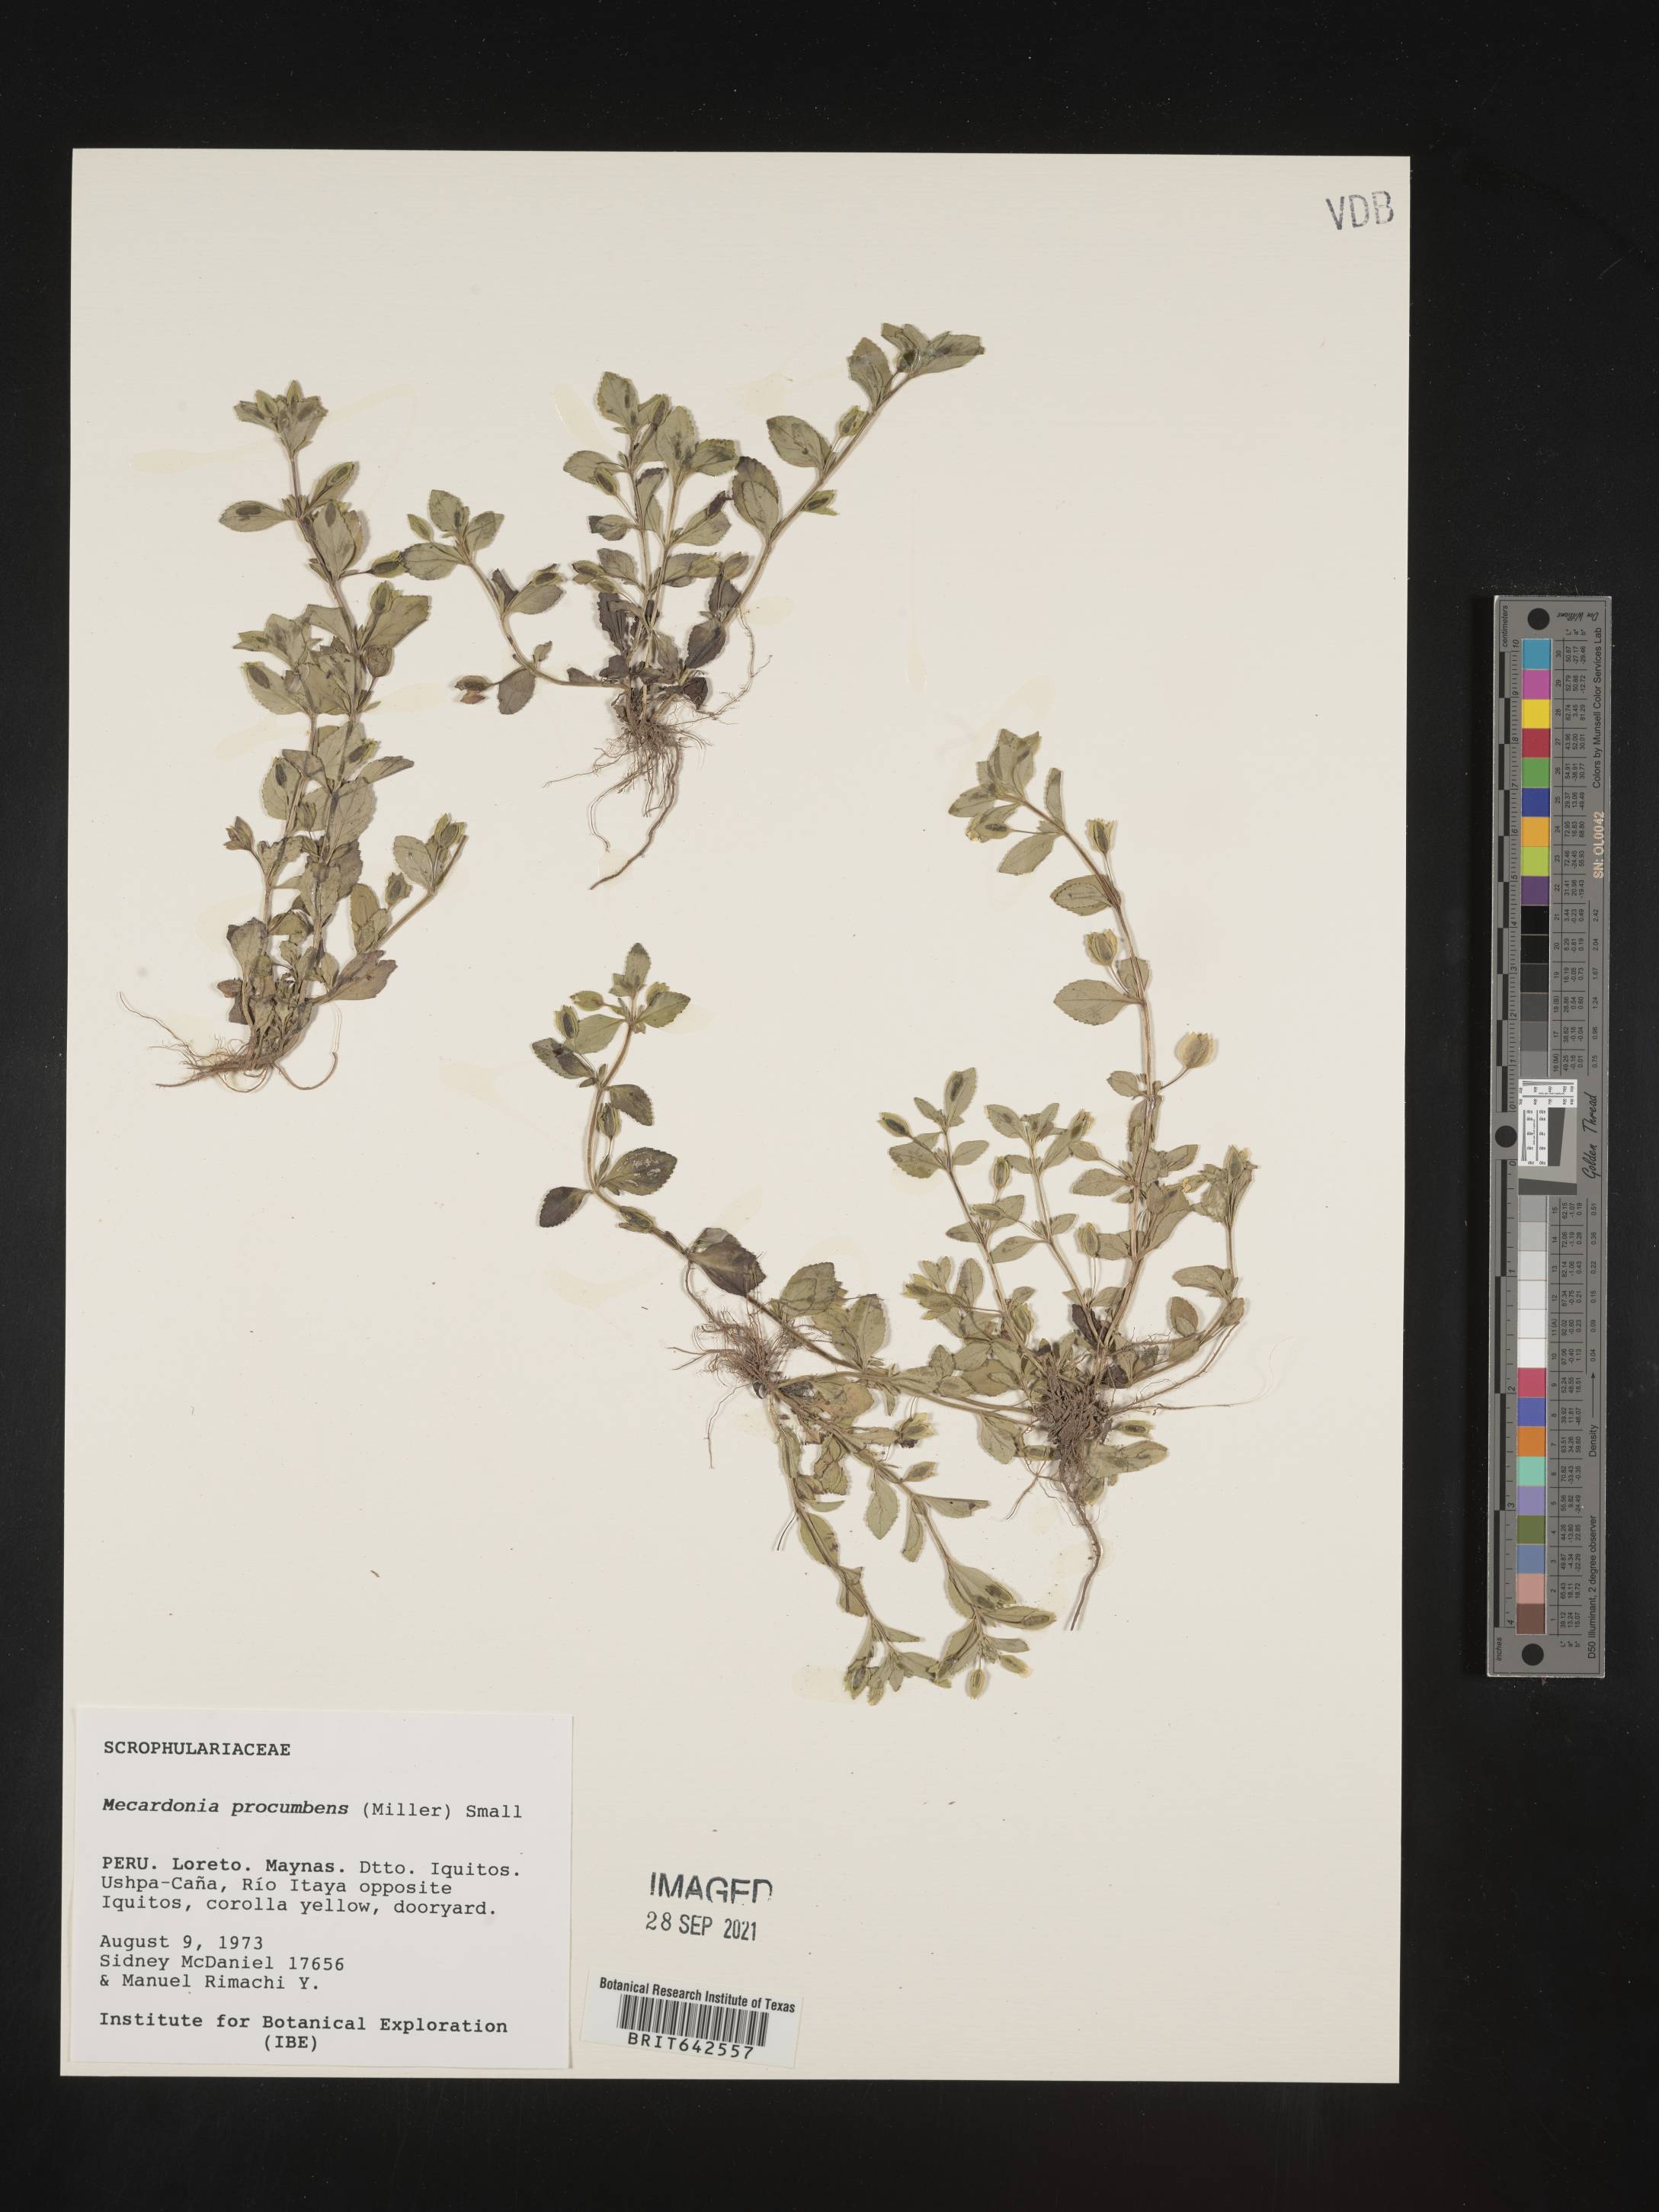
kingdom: Plantae
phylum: Tracheophyta
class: Magnoliopsida
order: Lamiales
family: Plantaginaceae
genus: Mecardonia
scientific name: Mecardonia
